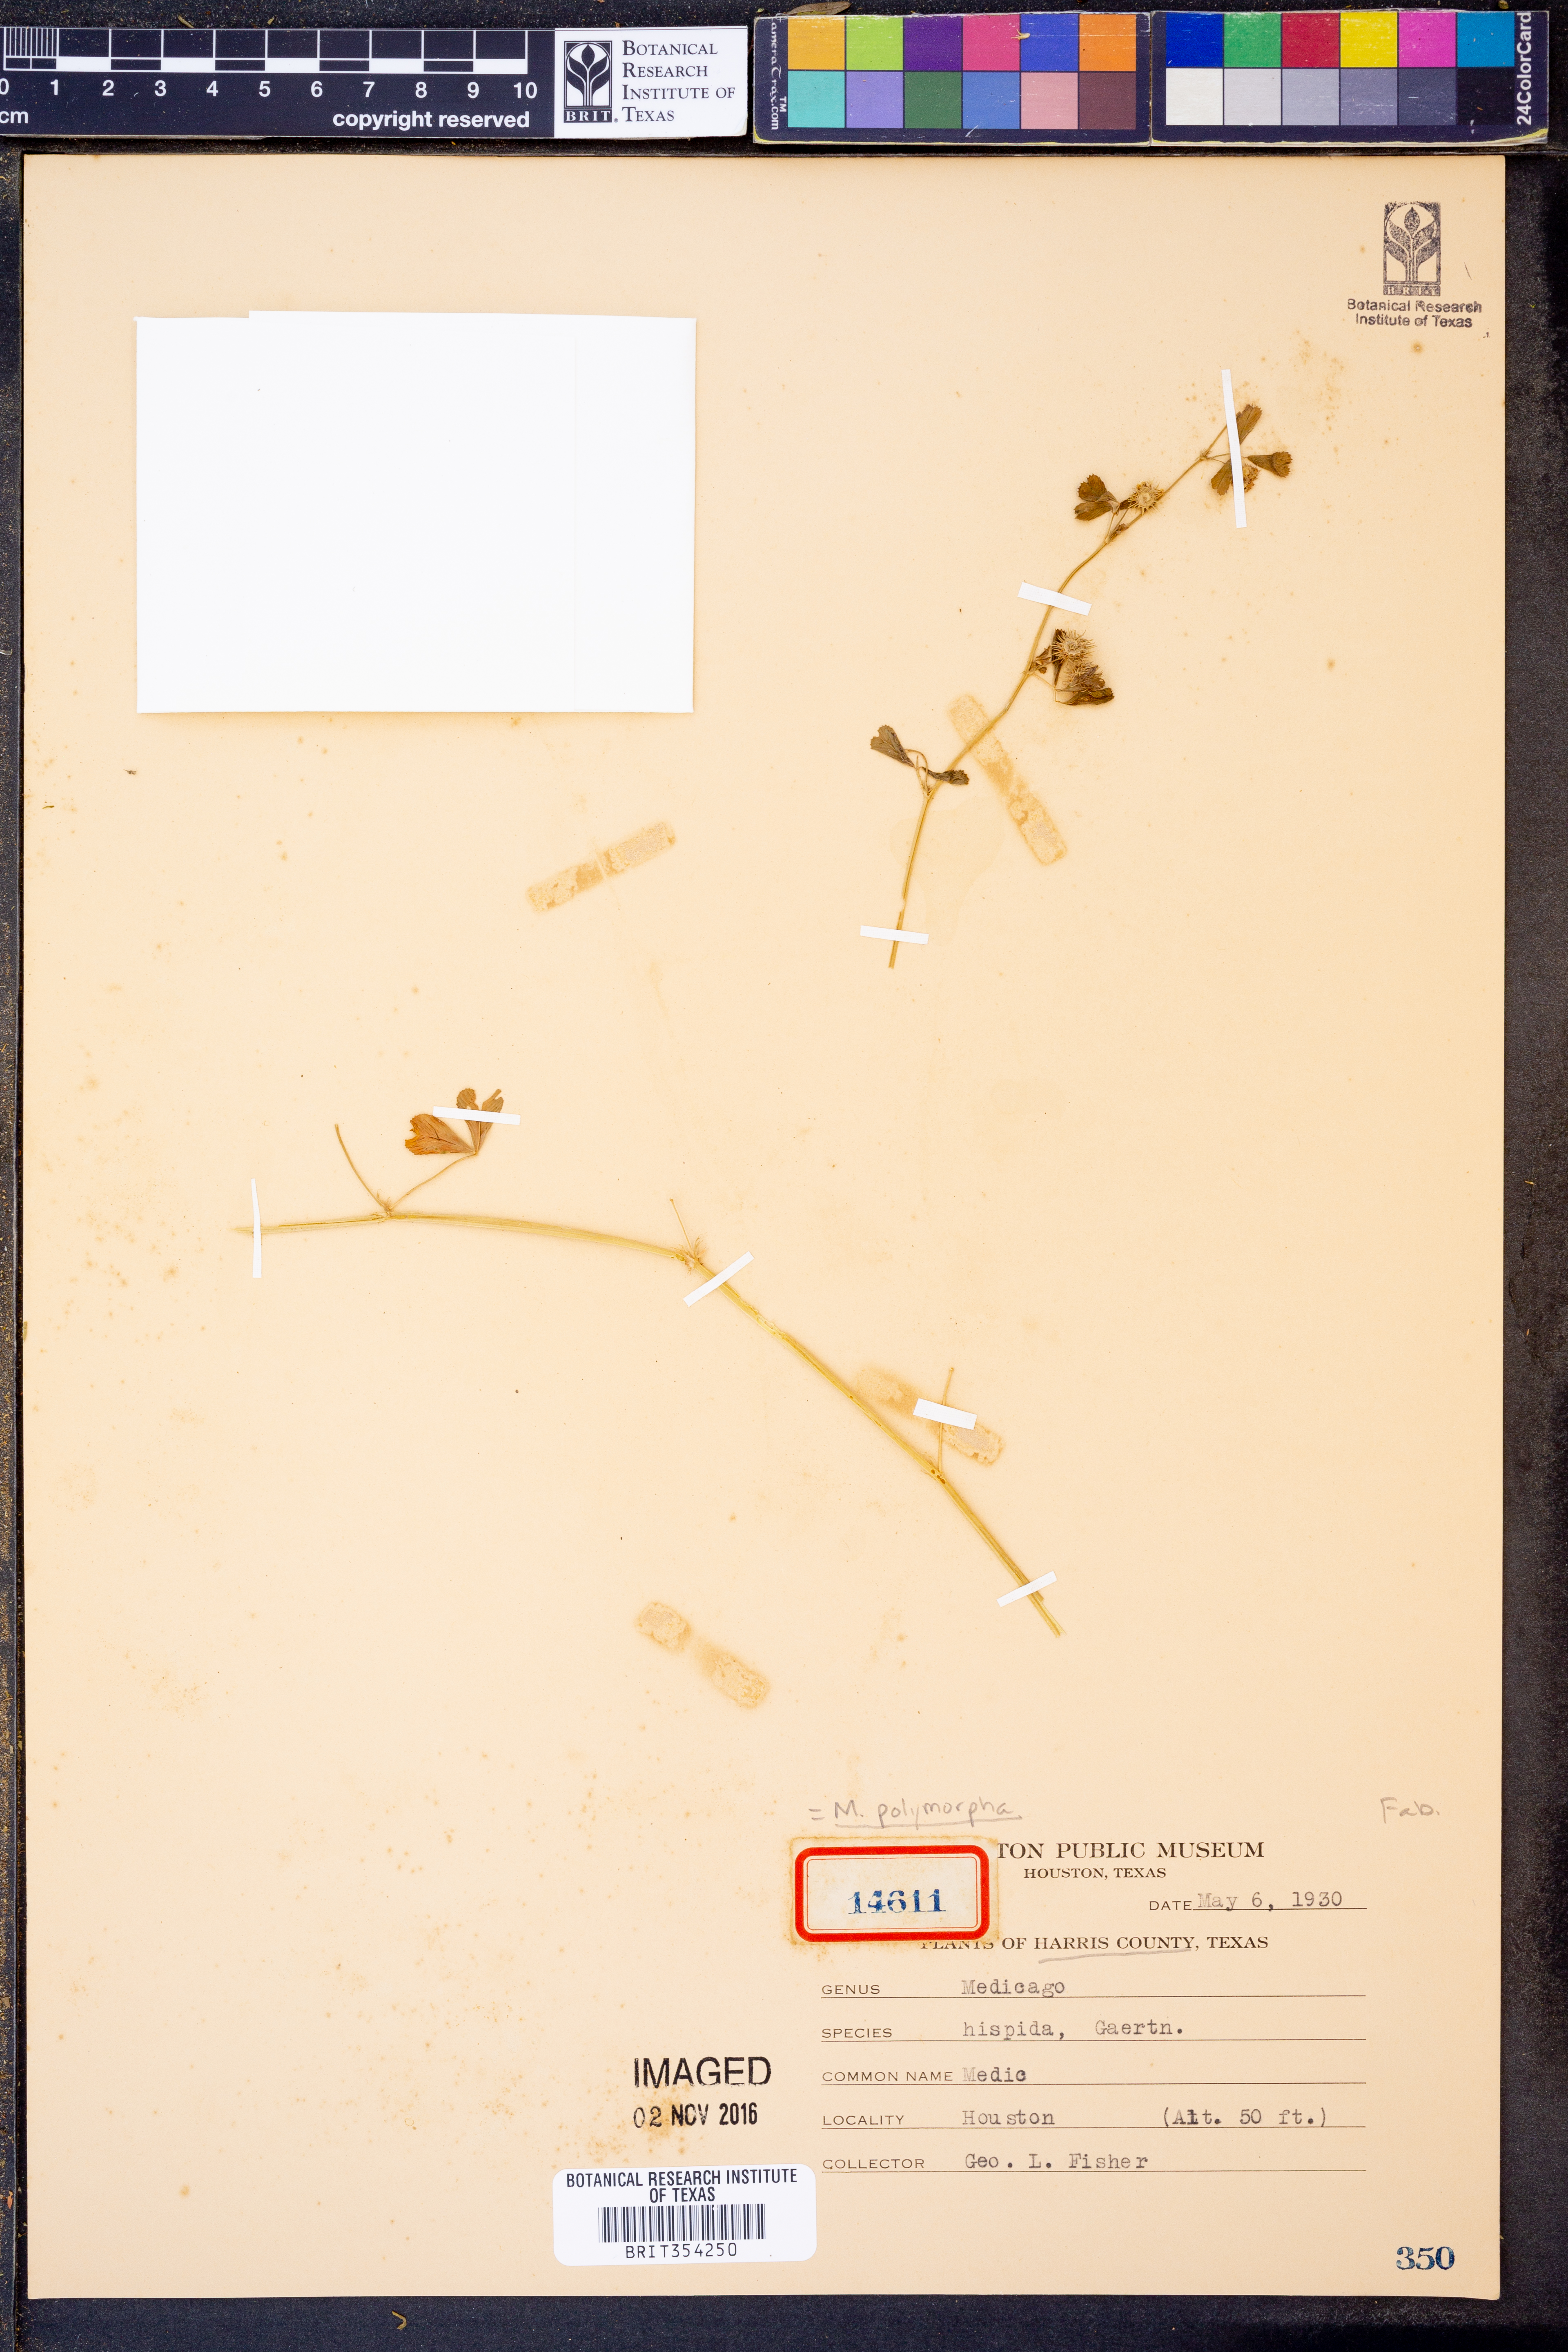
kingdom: Plantae
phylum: Tracheophyta
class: Magnoliopsida
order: Fabales
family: Fabaceae
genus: Medicago
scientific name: Medicago polymorpha
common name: Burclover
